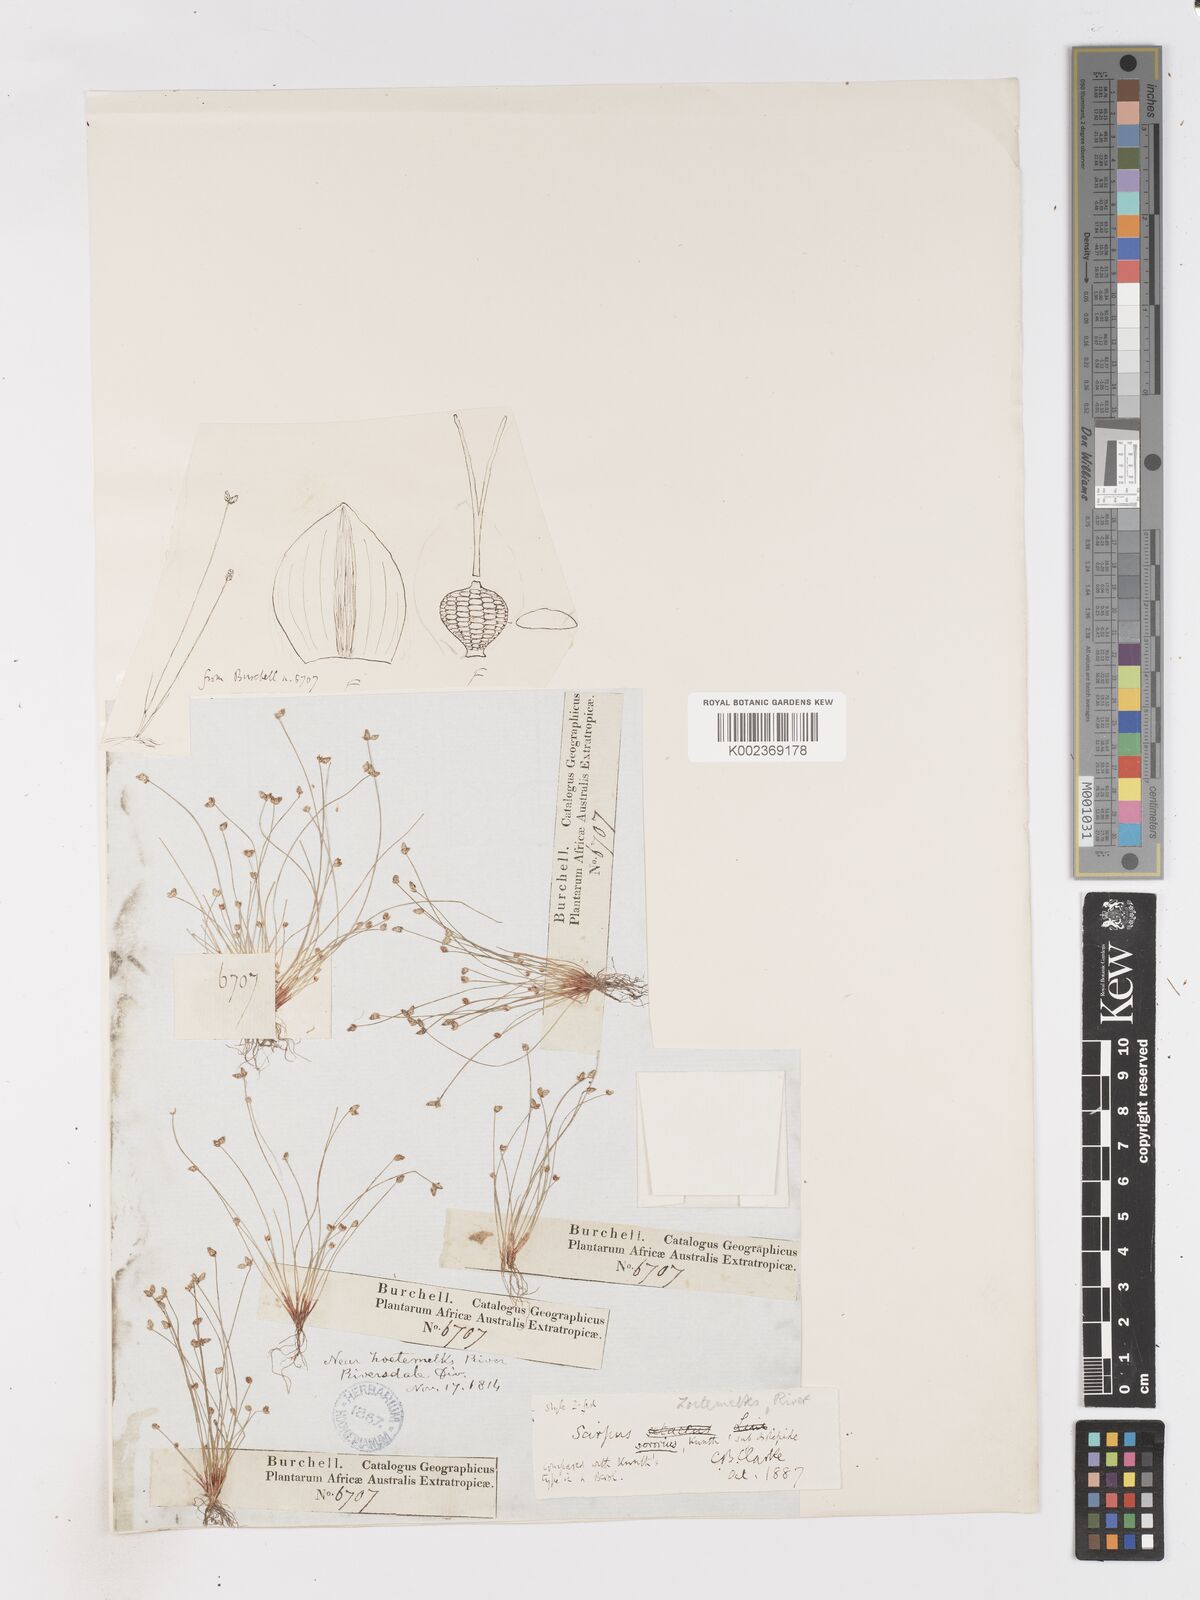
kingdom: Plantae
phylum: Tracheophyta
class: Liliopsida
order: Poales
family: Cyperaceae
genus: Isolepis
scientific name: Isolepis sororia
